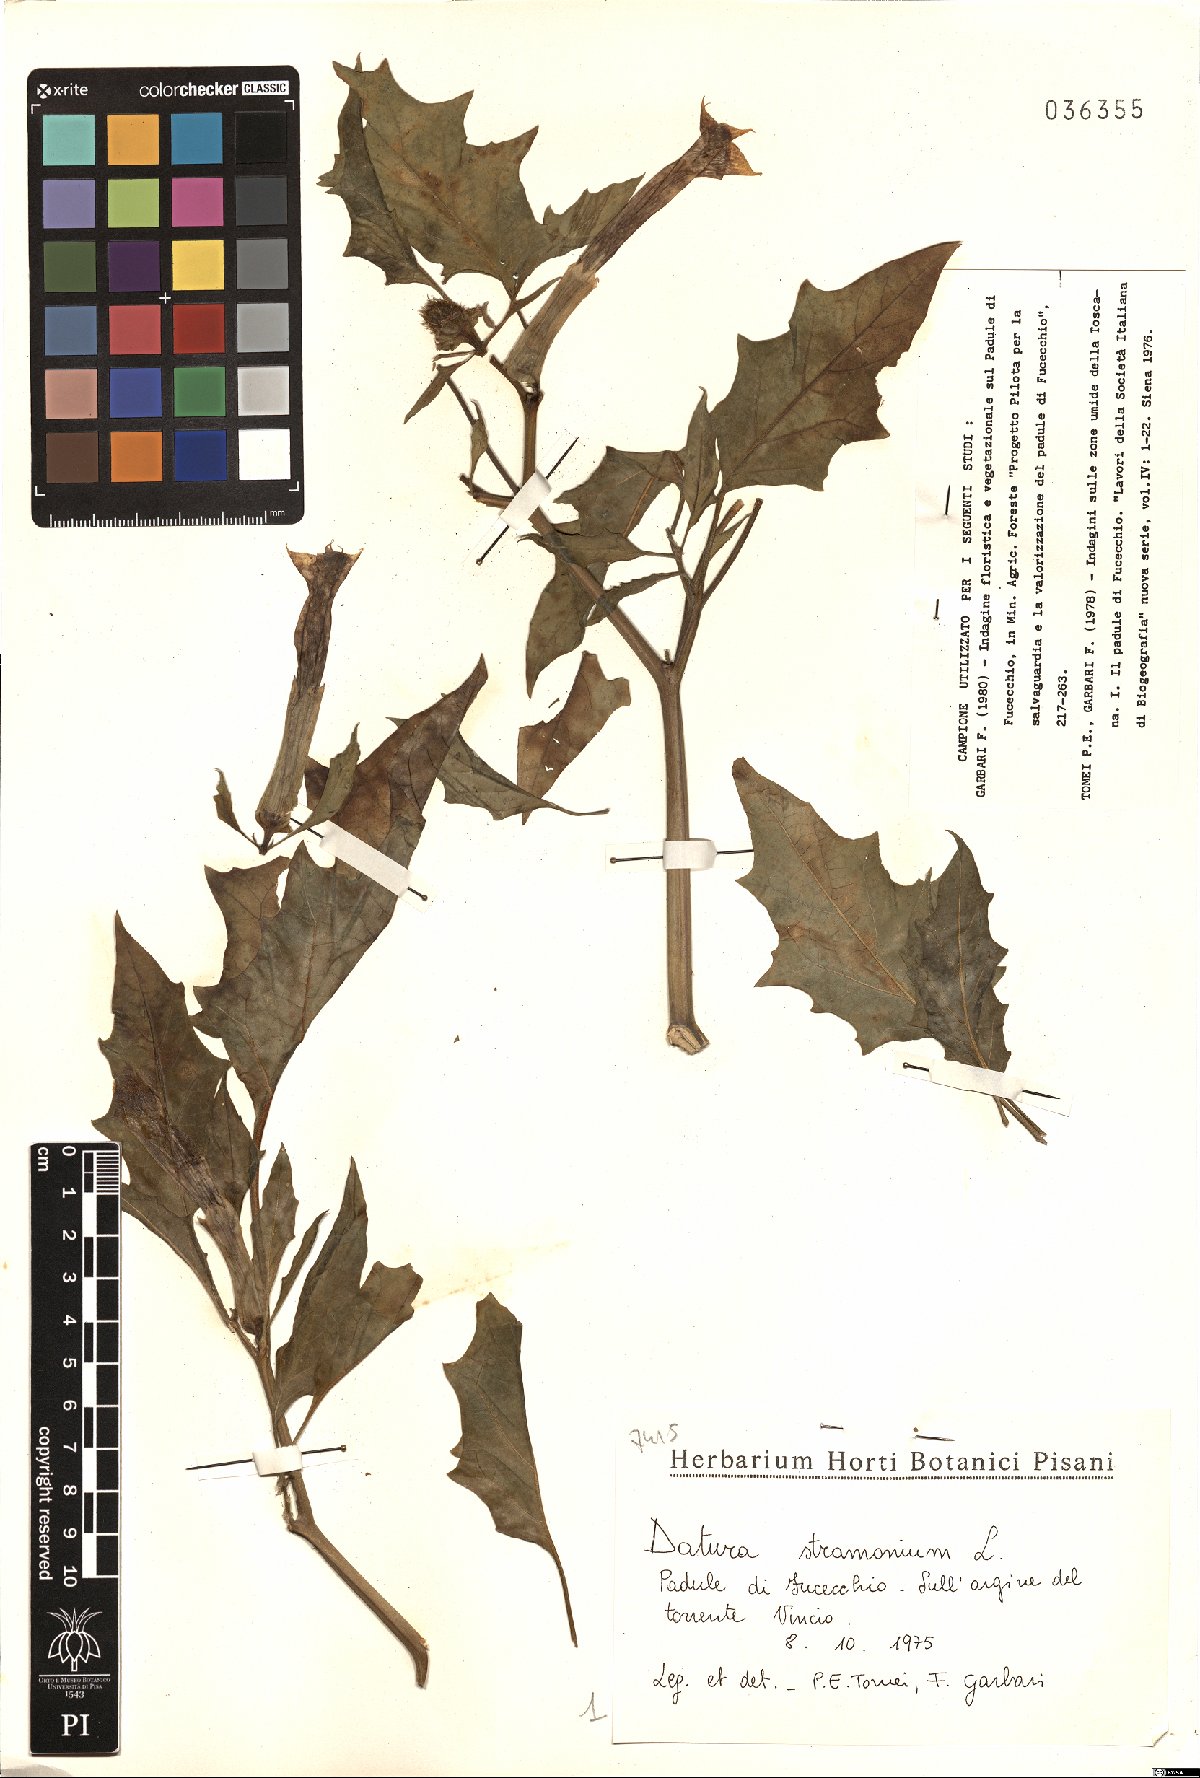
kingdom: Plantae
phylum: Tracheophyta
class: Magnoliopsida
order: Solanales
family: Solanaceae
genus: Datura
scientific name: Datura stramonium
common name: Thorn-apple
